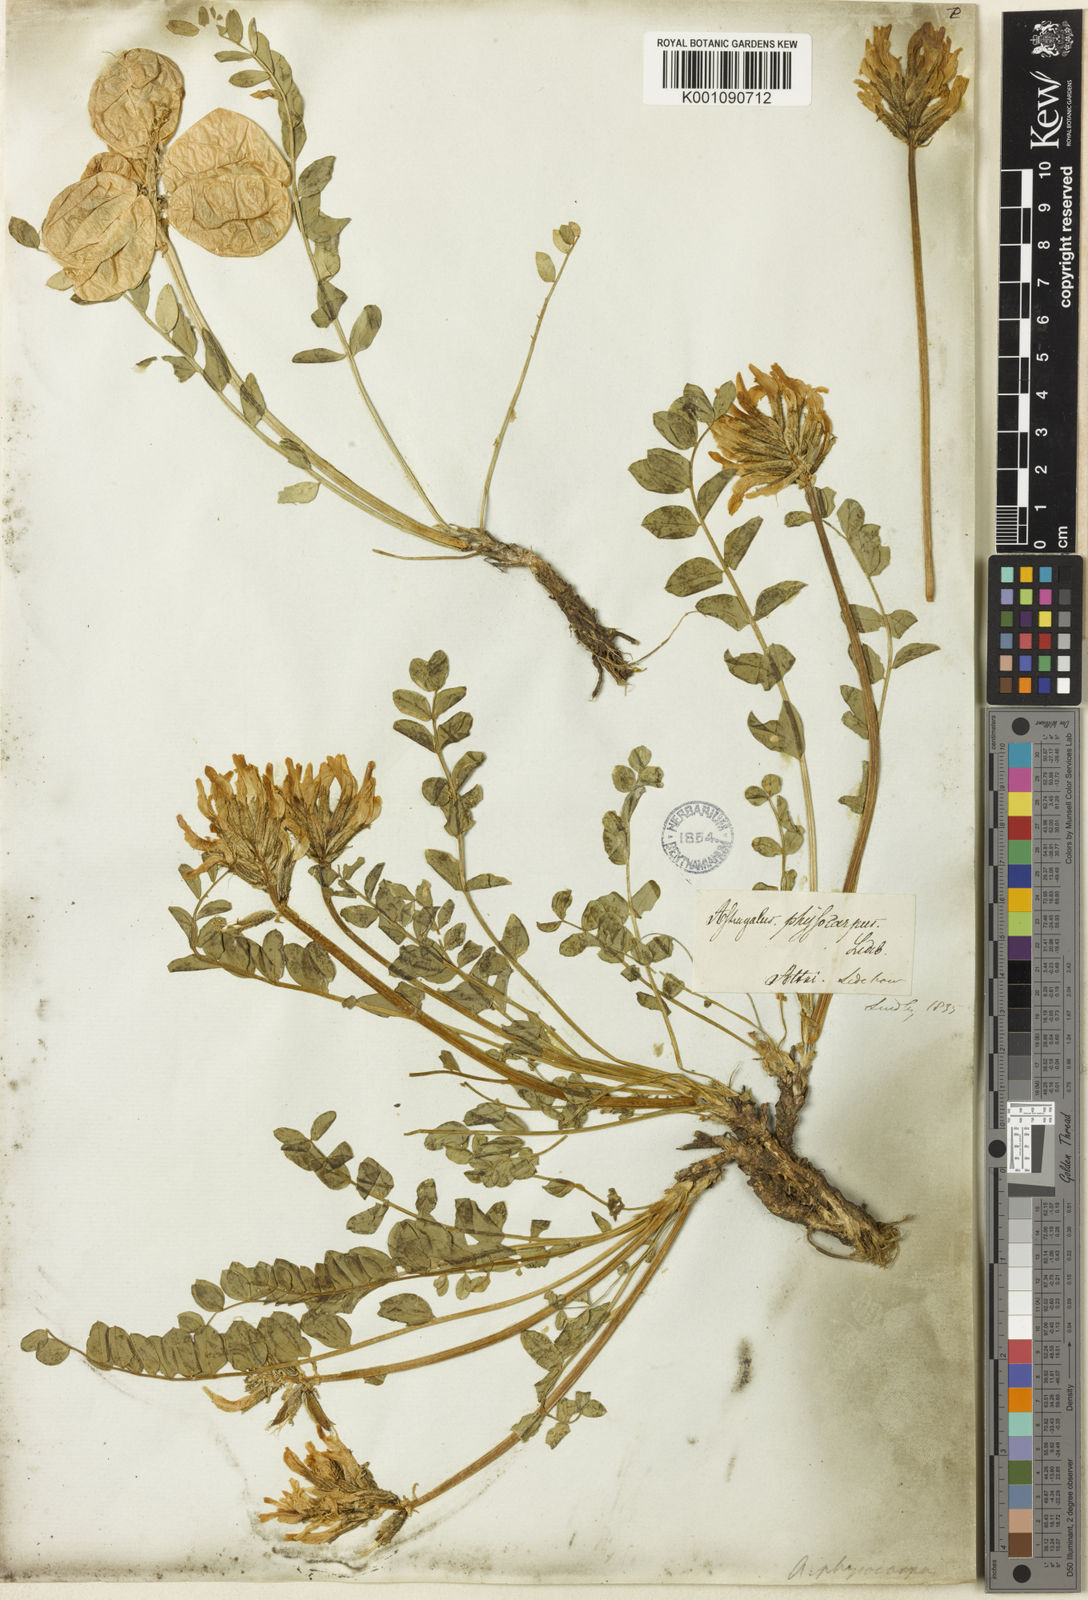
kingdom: Plantae
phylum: Tracheophyta
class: Magnoliopsida
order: Fabales
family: Fabaceae
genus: Astragalus
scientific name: Astragalus
